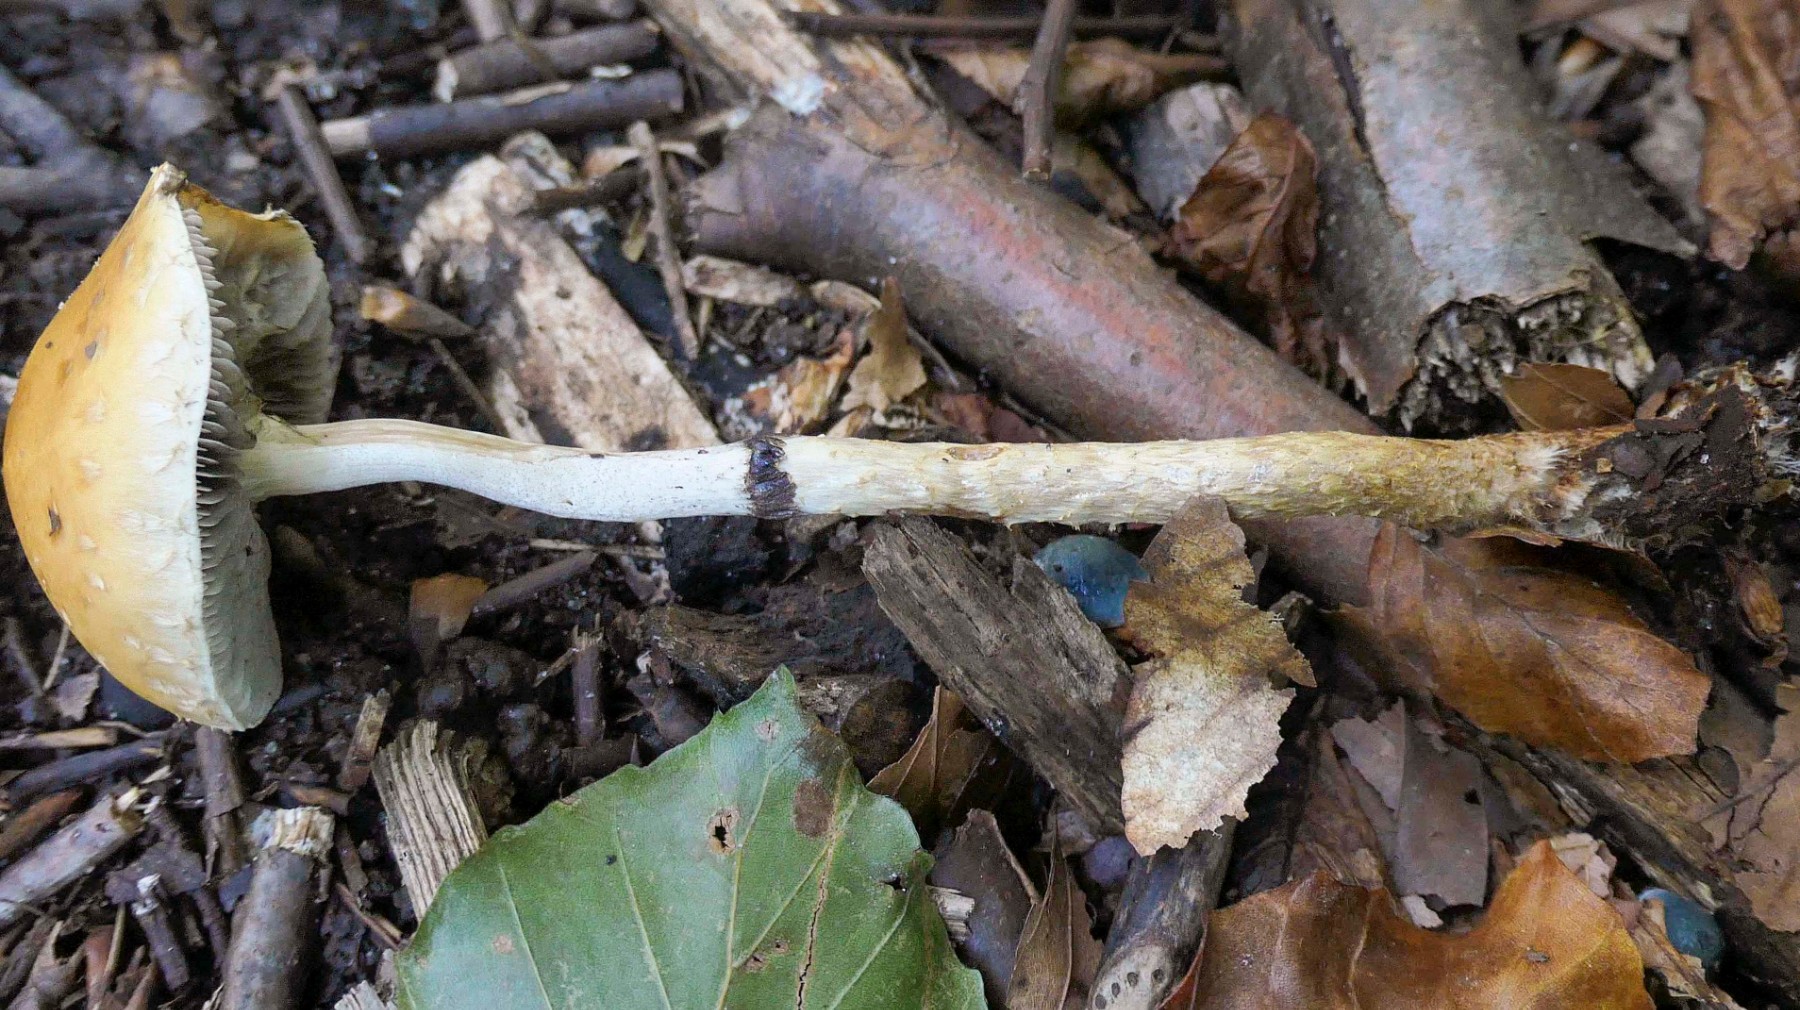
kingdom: Fungi
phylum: Basidiomycota
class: Agaricomycetes
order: Agaricales
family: Strophariaceae
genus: Leratiomyces
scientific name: Leratiomyces squamosus
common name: skællet bredblad
